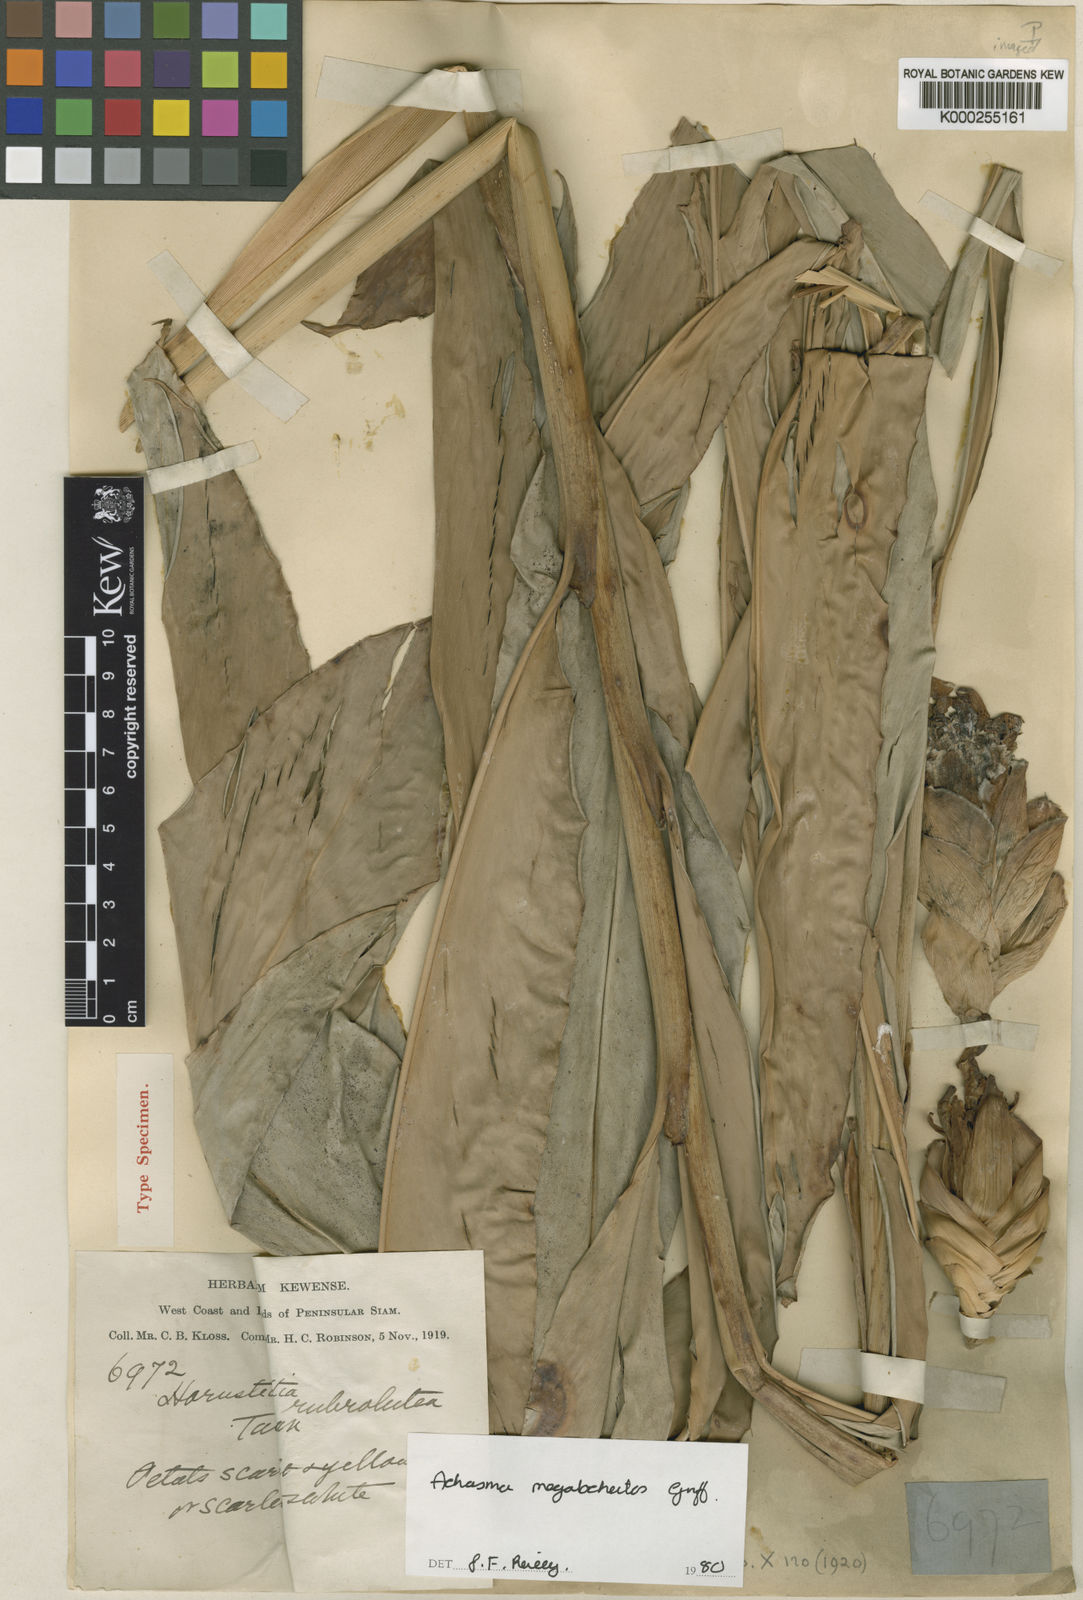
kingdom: Plantae
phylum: Tracheophyta
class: Liliopsida
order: Zingiberales
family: Zingiberaceae
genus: Etlingera
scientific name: Etlingera littoralis
